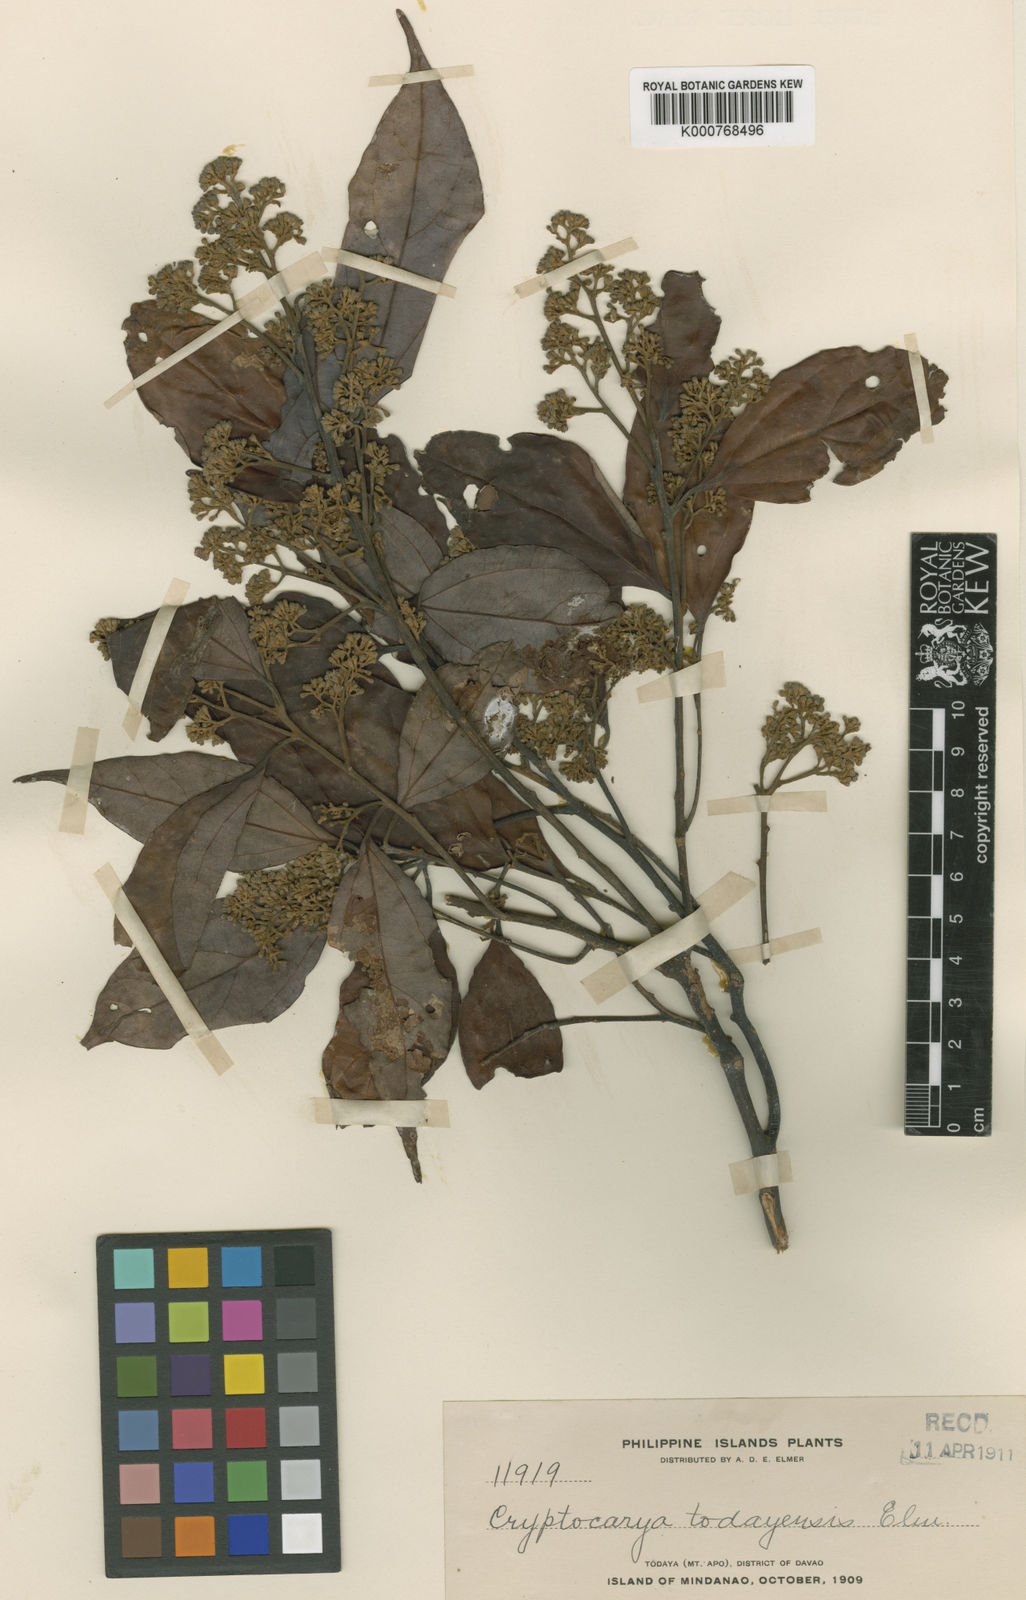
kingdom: Plantae
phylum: Tracheophyta
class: Magnoliopsida
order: Laurales
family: Lauraceae
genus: Cryptocarya
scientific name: Cryptocarya todayensis
